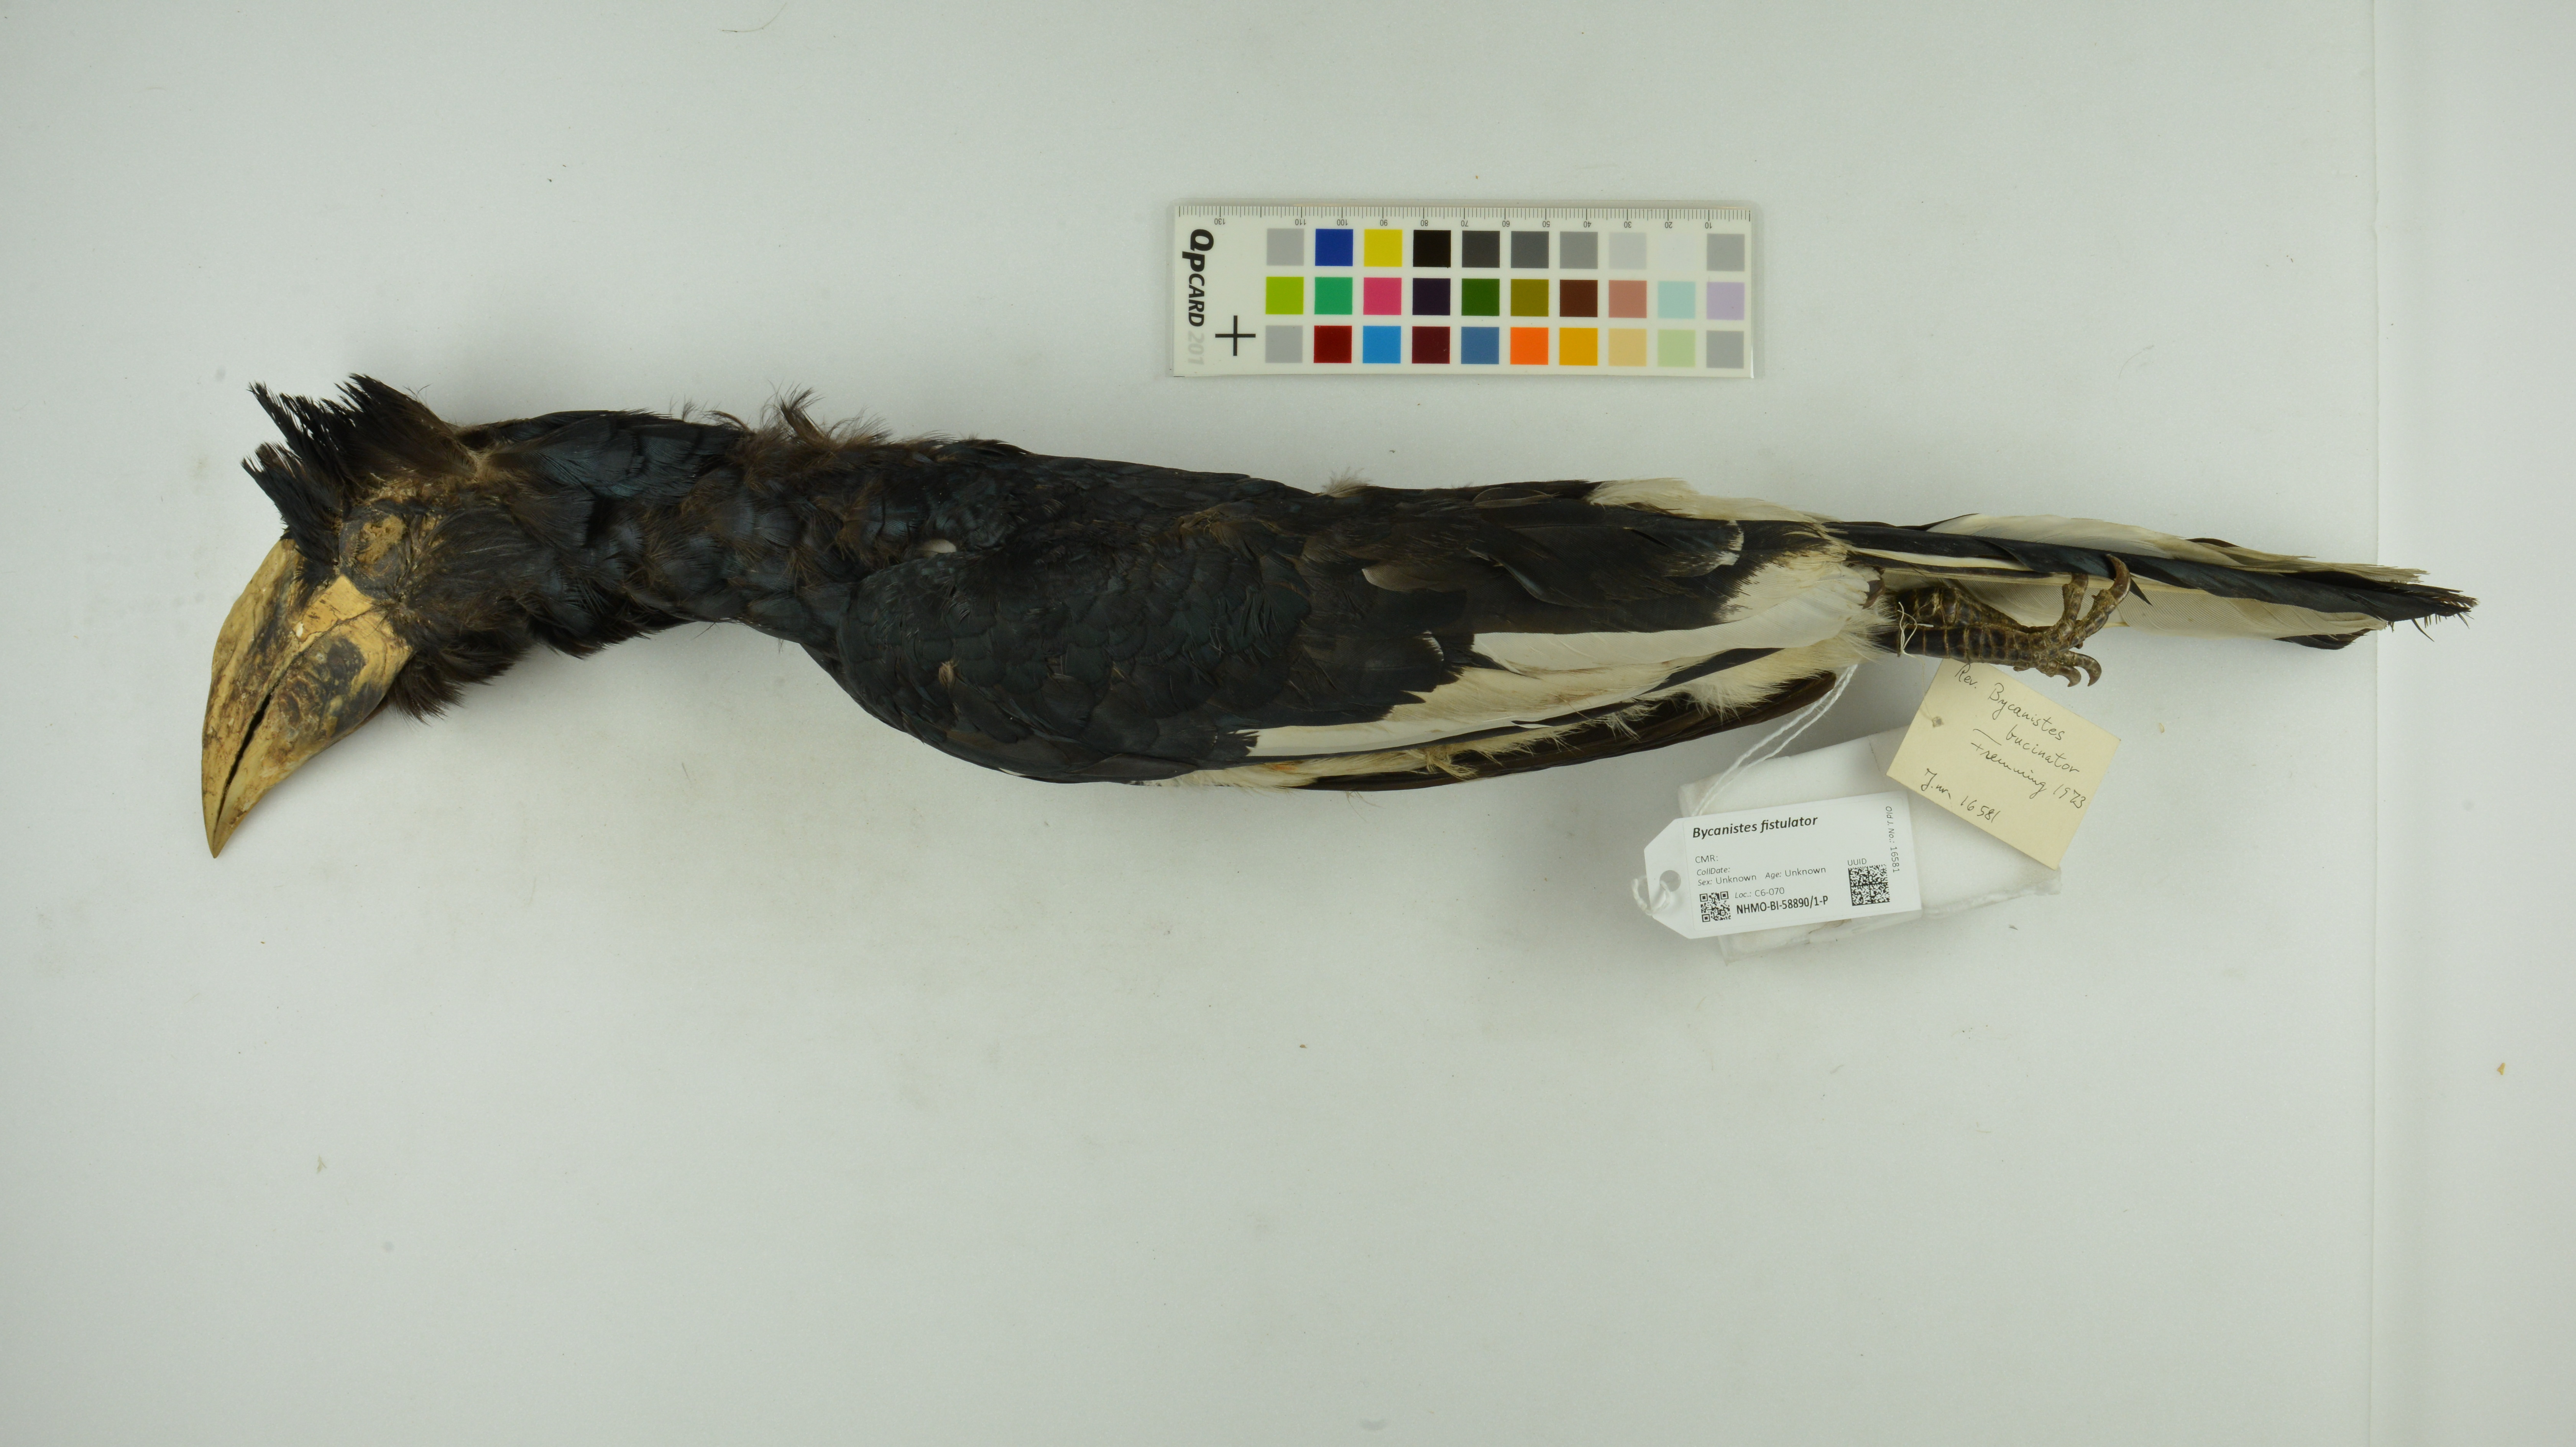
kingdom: Animalia
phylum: Chordata
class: Aves
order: Bucerotiformes
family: Bucerotidae
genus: Bycanistes
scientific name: Bycanistes fistulator
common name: Piping hornbill
